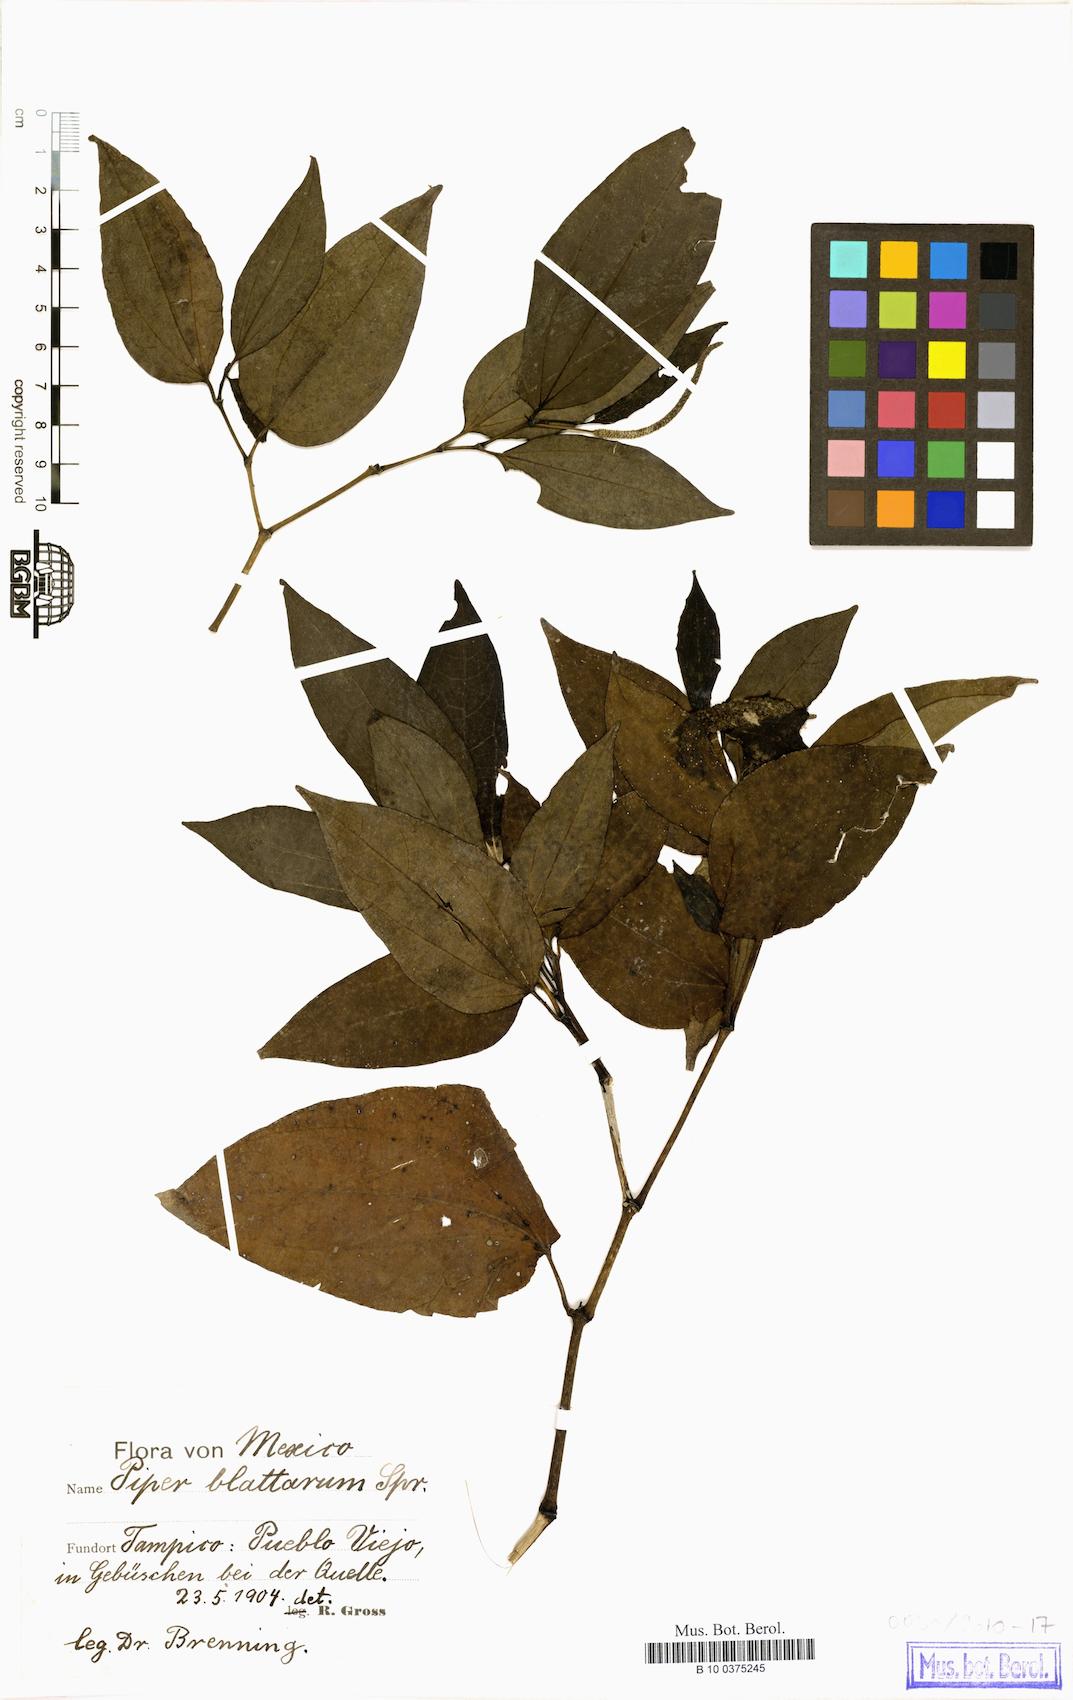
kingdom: Plantae
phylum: Tracheophyta
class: Magnoliopsida
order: Piperales
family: Piperaceae
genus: Piper
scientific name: Piper blattarum
